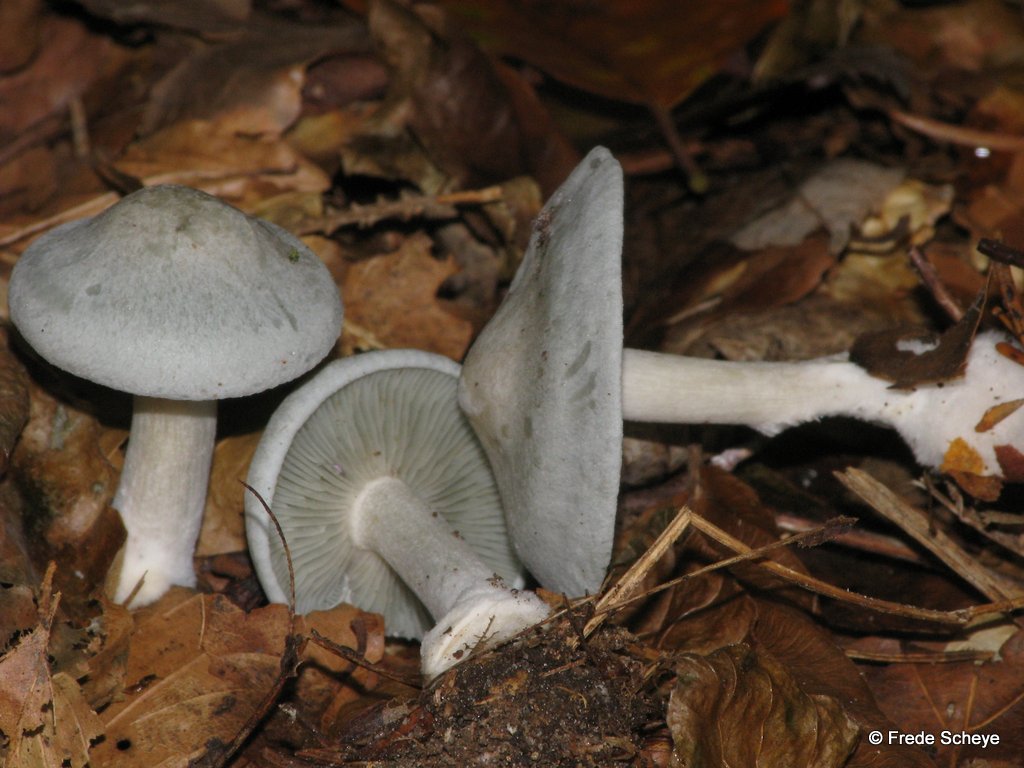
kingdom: Fungi
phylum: Basidiomycota
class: Agaricomycetes
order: Agaricales
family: Tricholomataceae
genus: Clitocybe
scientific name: Clitocybe odora
